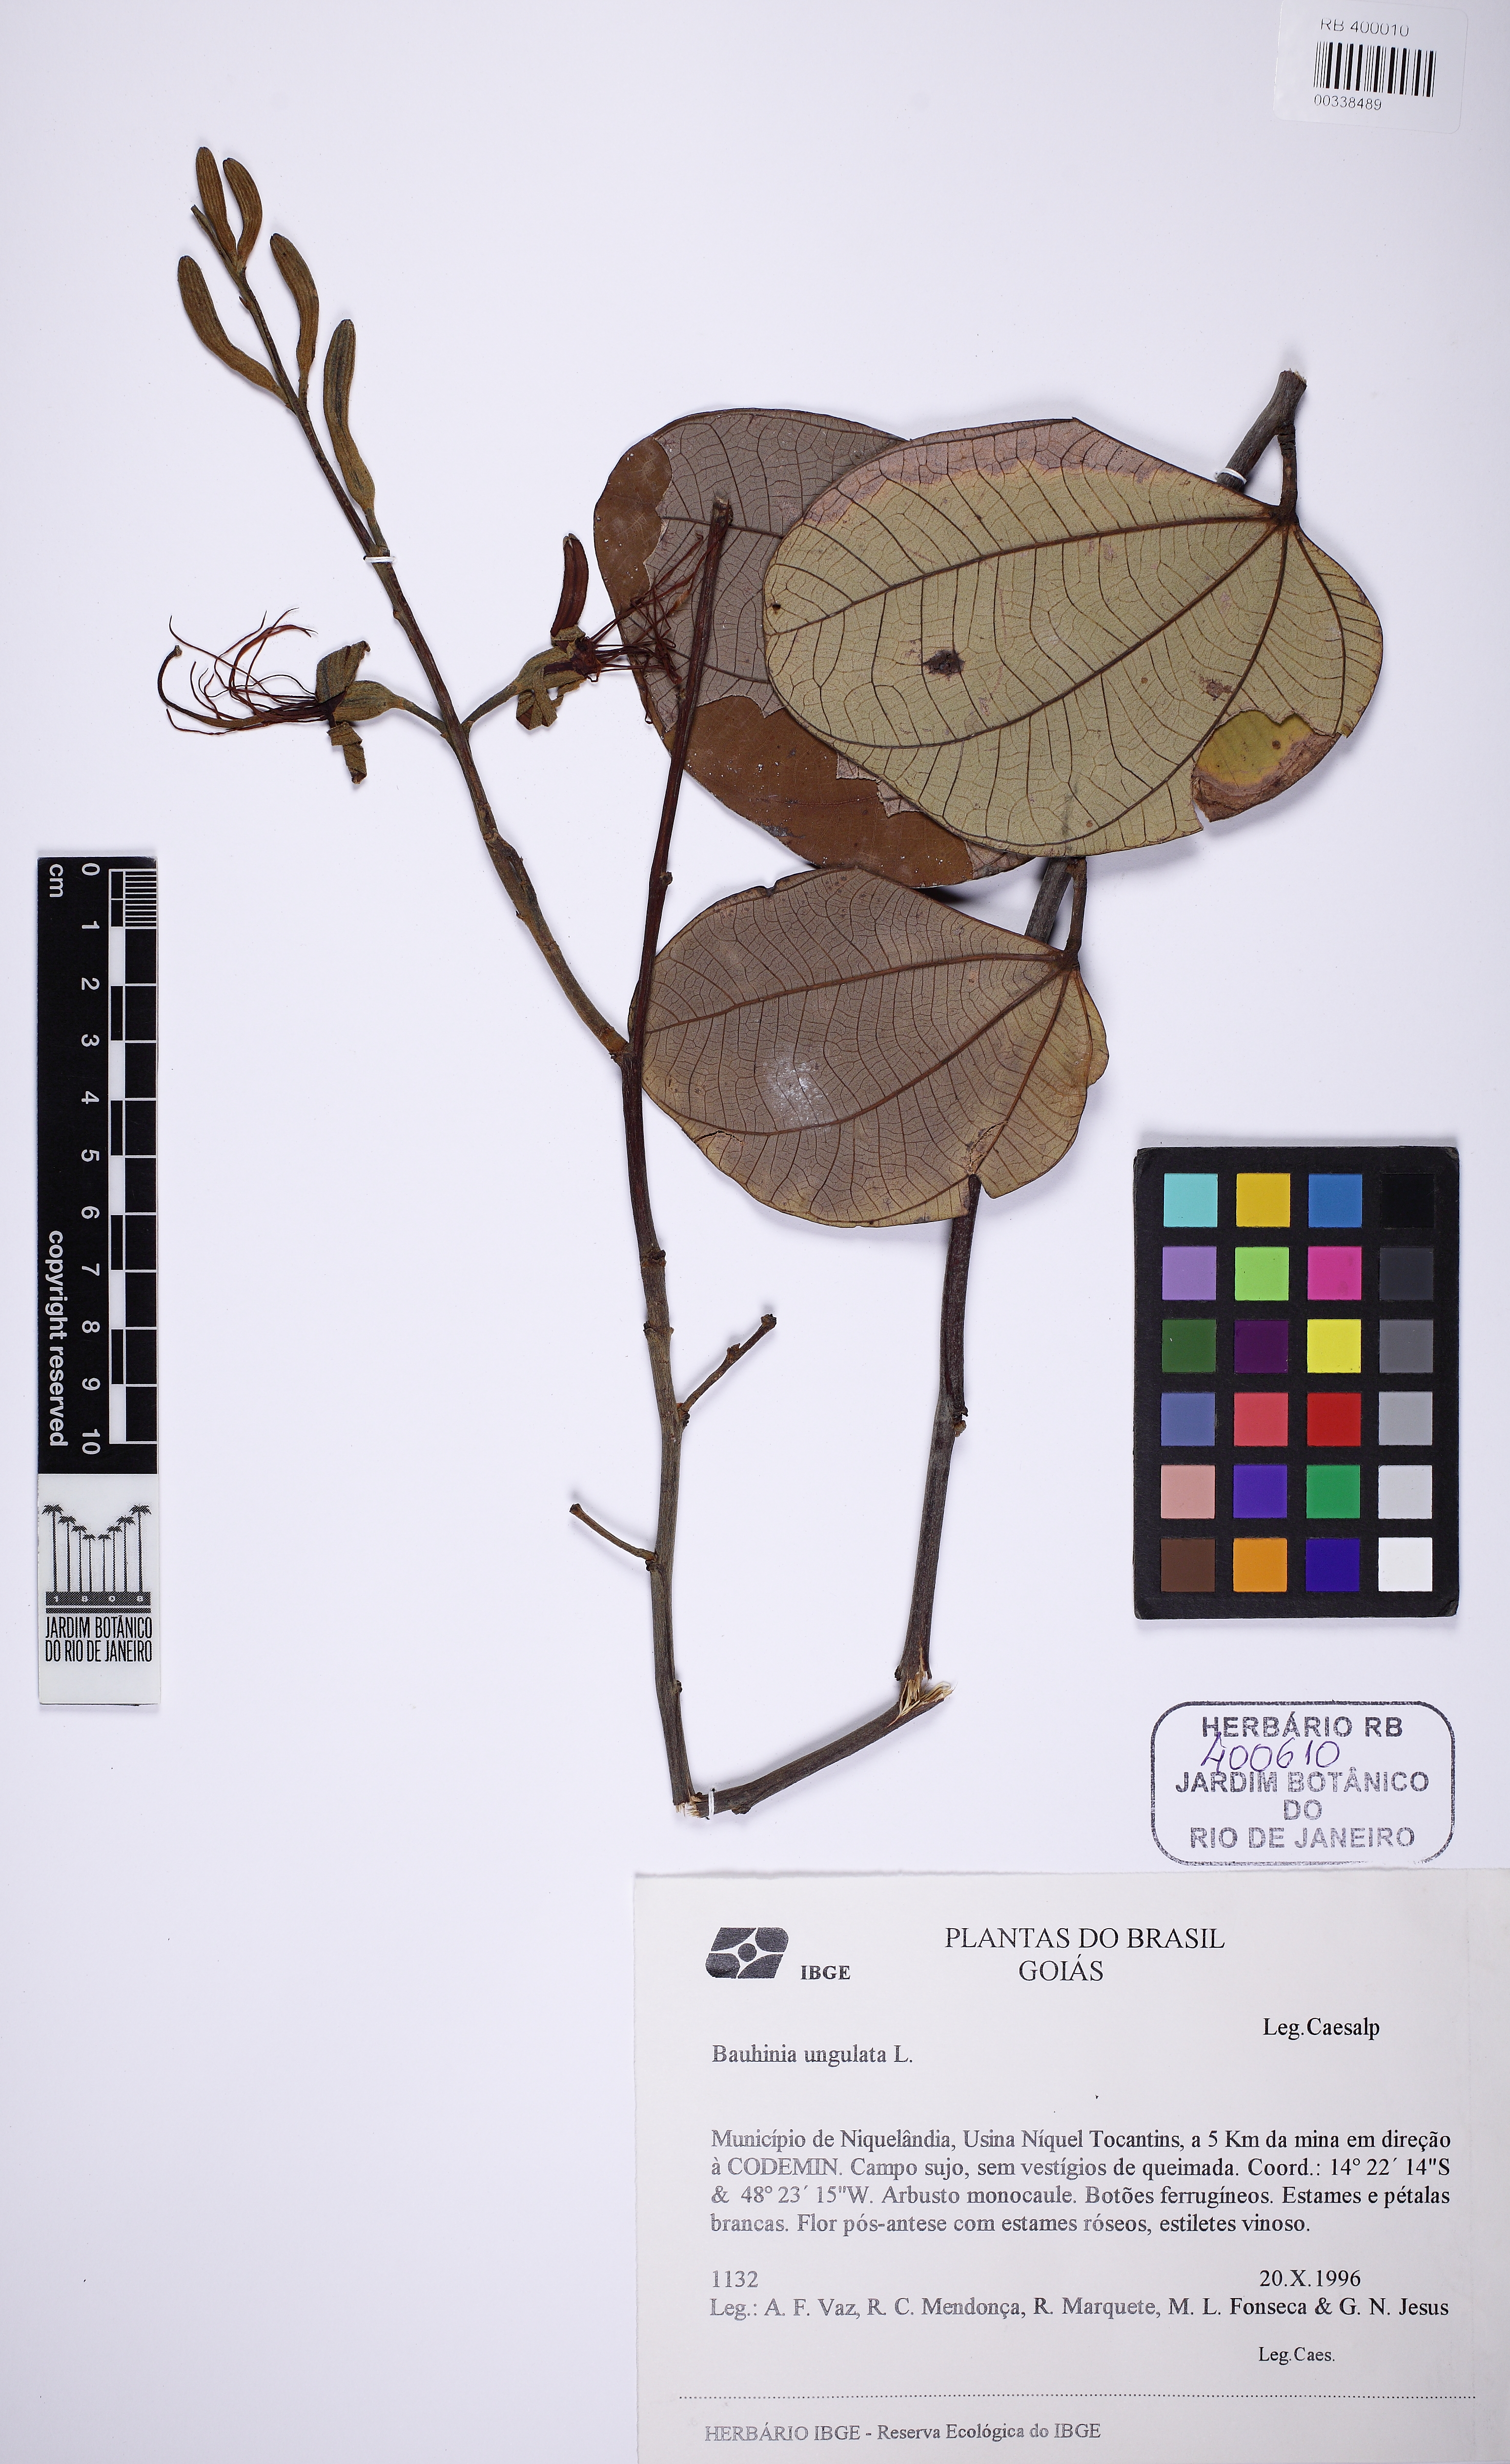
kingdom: Plantae
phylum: Tracheophyta
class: Magnoliopsida
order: Fabales
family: Fabaceae
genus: Mimosa
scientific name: Mimosa atlantica
